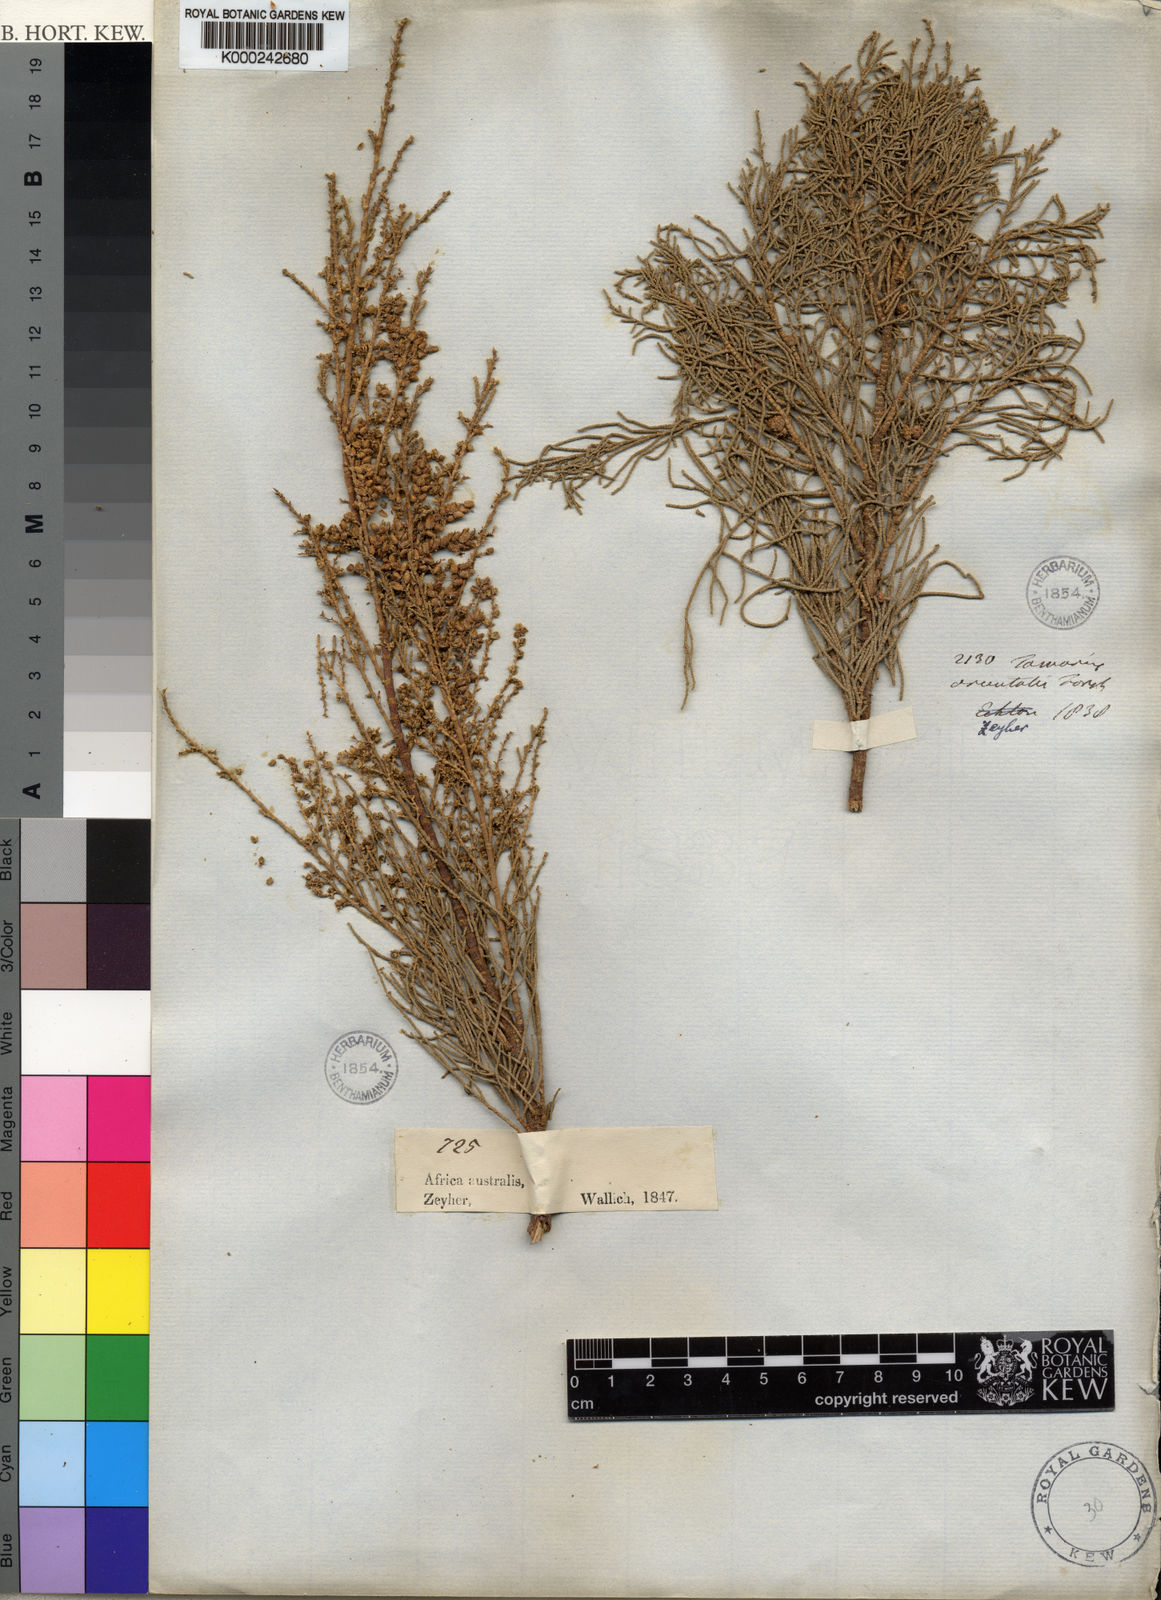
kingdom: Plantae
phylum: Tracheophyta
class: Magnoliopsida
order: Caryophyllales
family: Tamaricaceae
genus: Tamarix
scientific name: Tamarix aphylla
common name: Athel tamarisk
